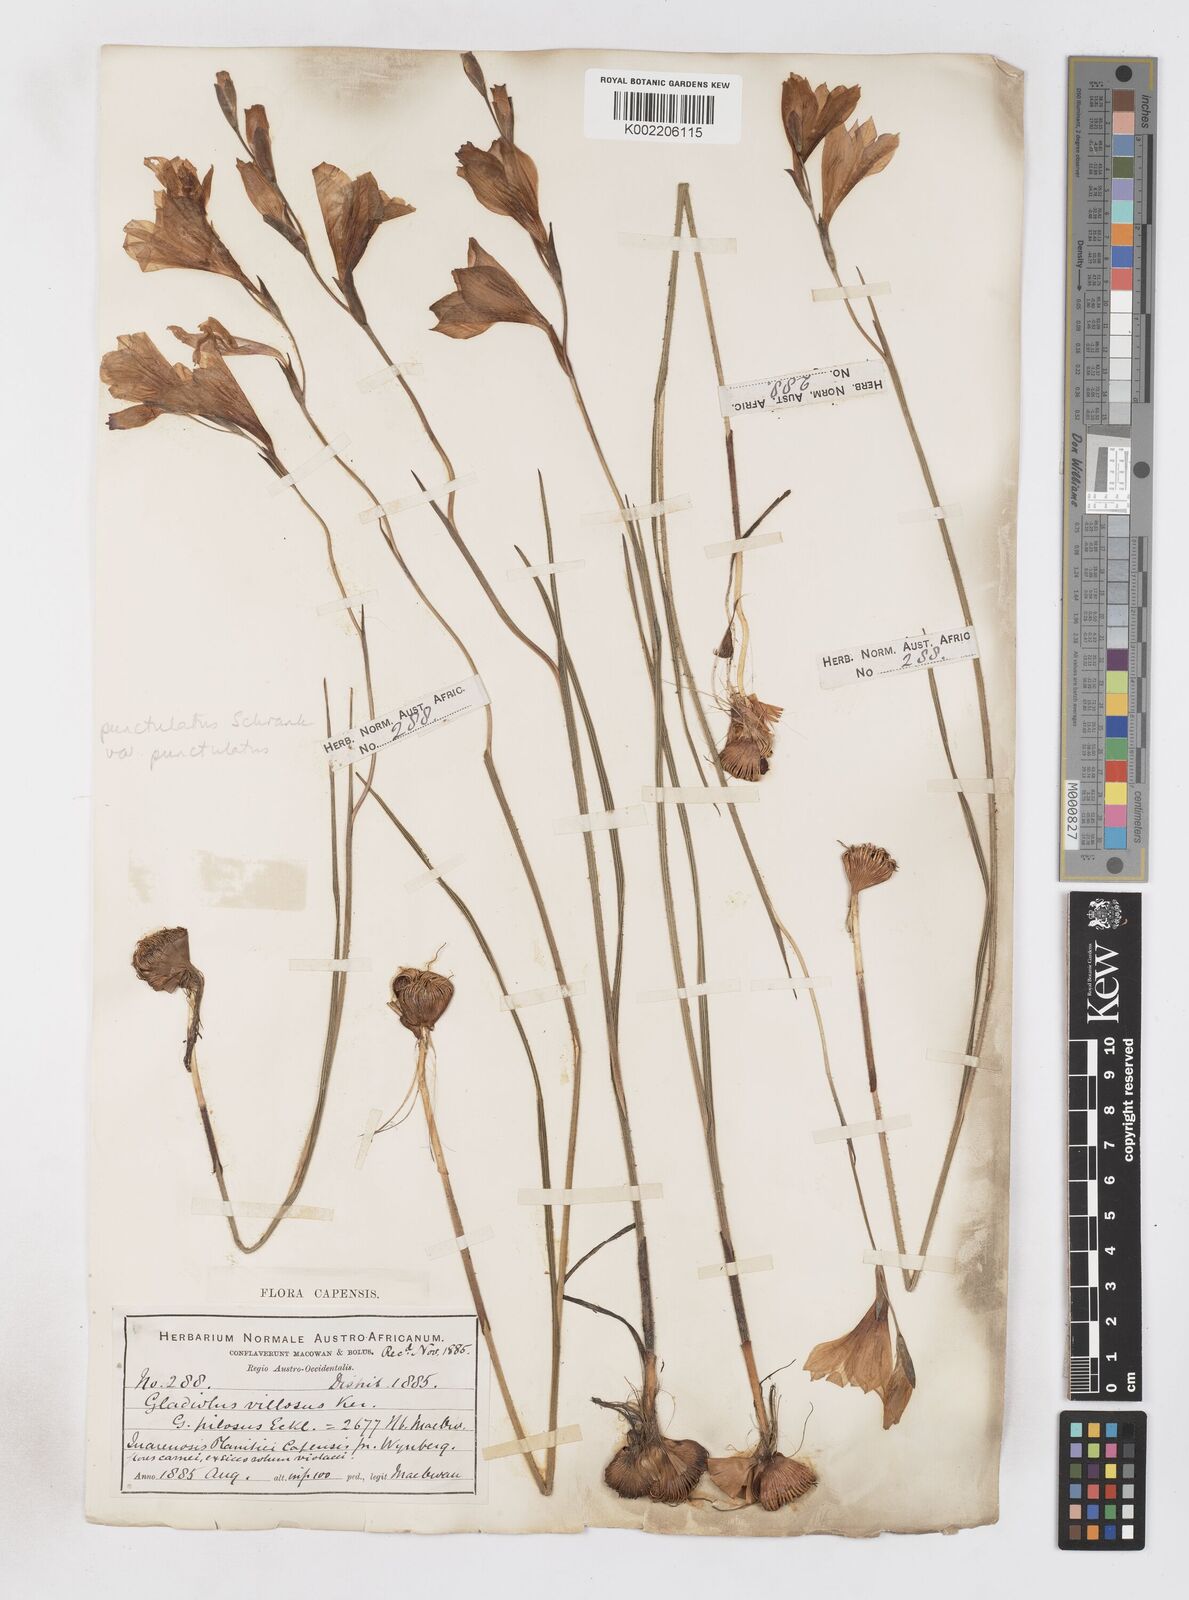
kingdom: Plantae
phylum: Tracheophyta
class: Liliopsida
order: Asparagales
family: Iridaceae
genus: Gladiolus
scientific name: Gladiolus hirsutus
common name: Small pink afrikaner
